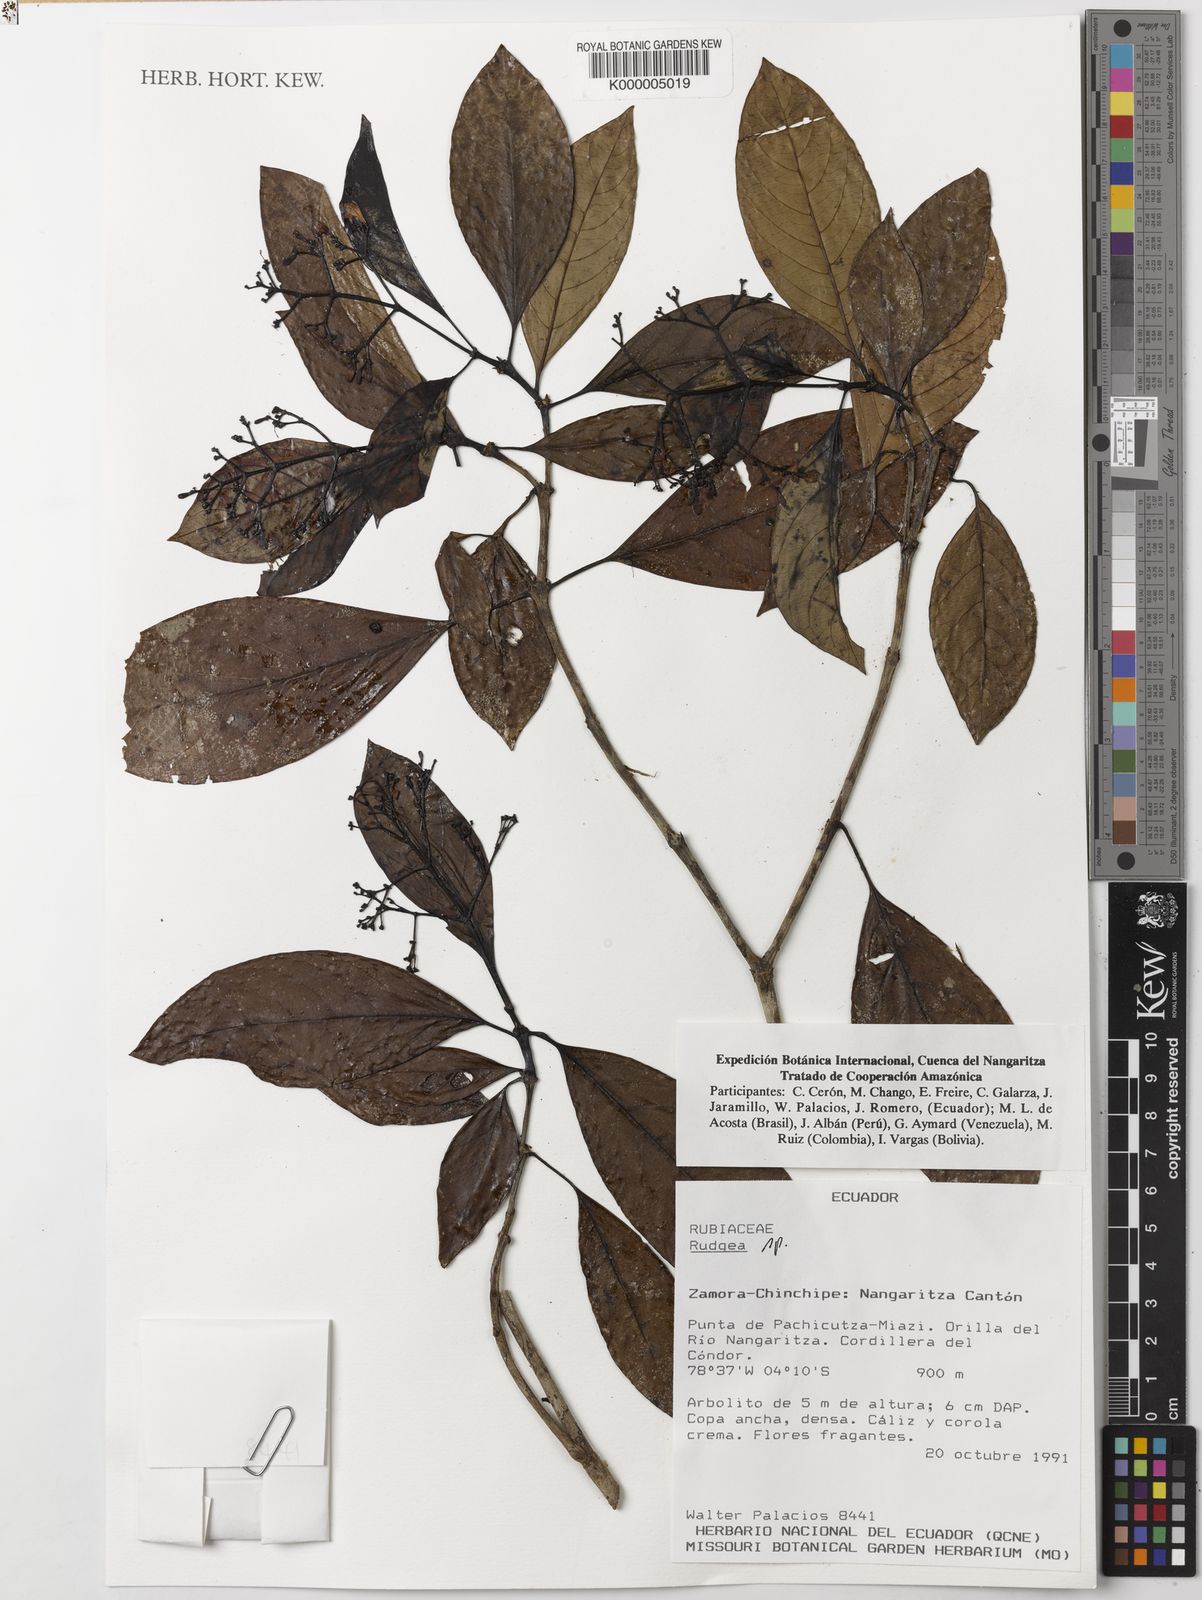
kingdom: Plantae
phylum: Tracheophyta
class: Magnoliopsida
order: Gentianales
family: Rubiaceae
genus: Rudgea
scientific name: Rudgea
